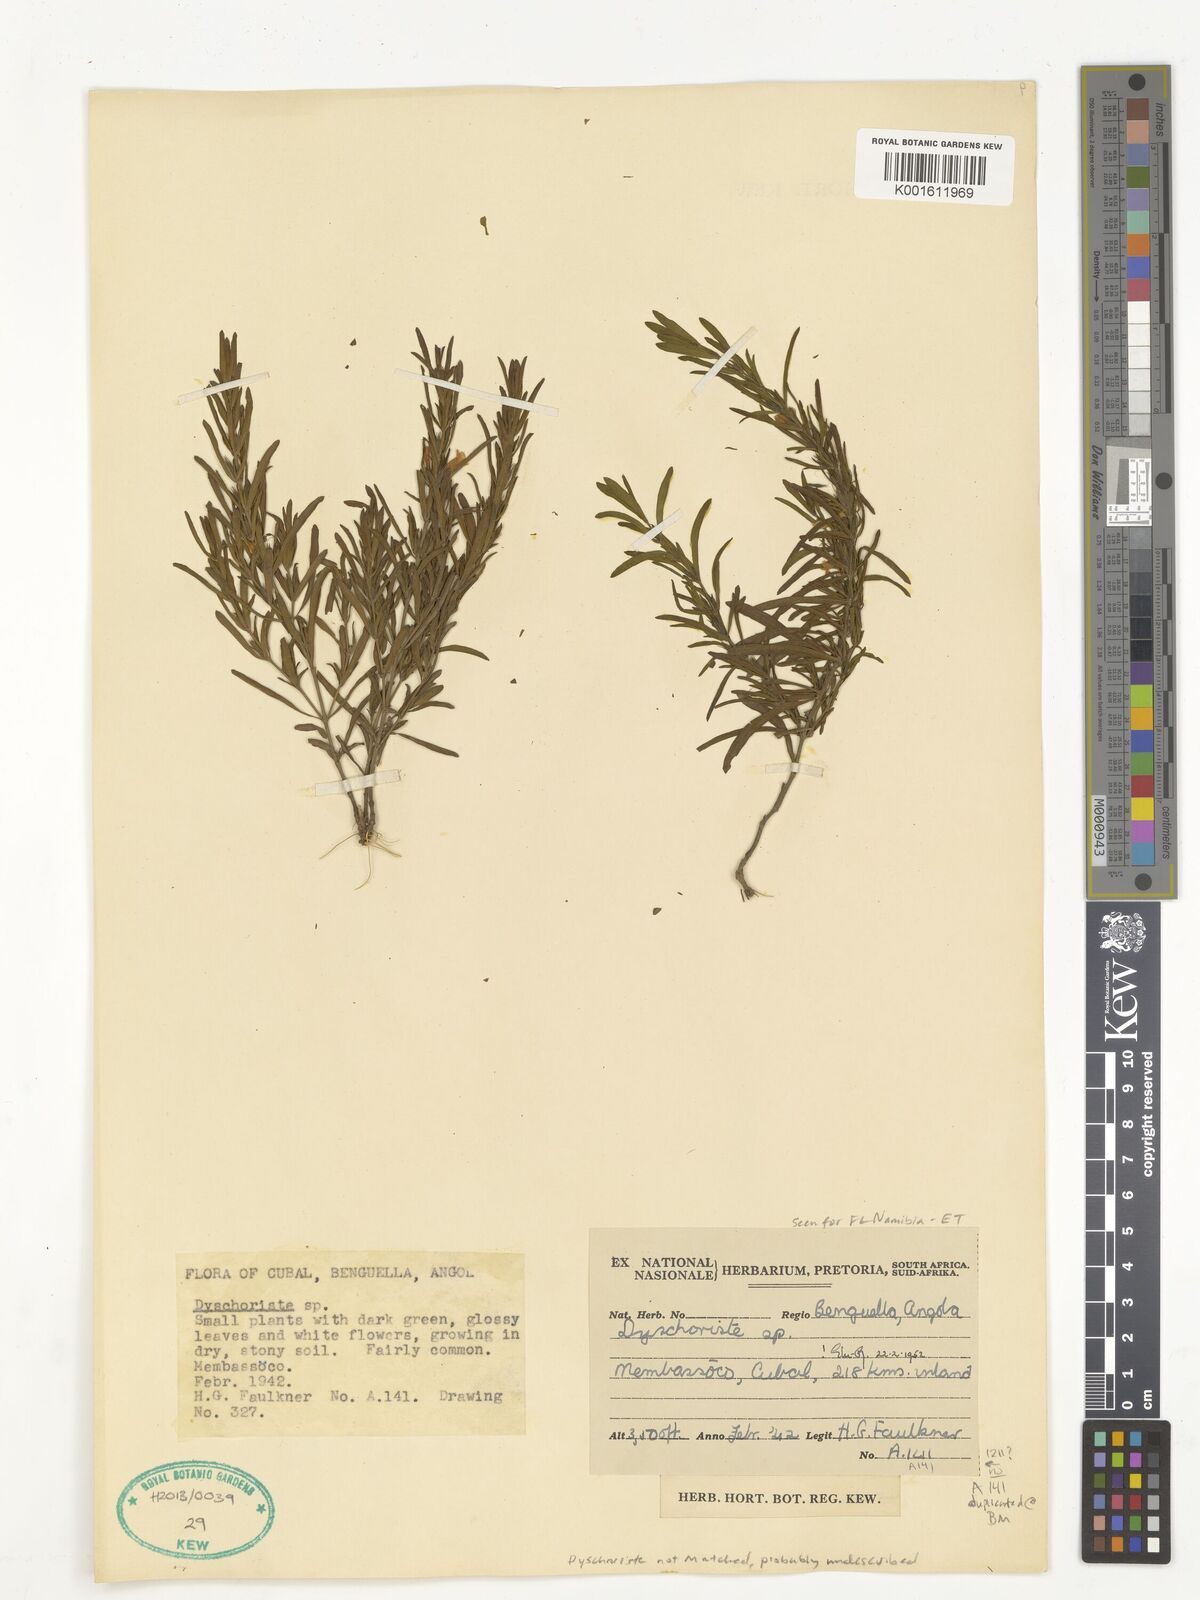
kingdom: Plantae
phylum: Tracheophyta
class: Magnoliopsida
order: Lamiales
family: Acanthaceae
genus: Dyschoriste
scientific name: Dyschoriste
